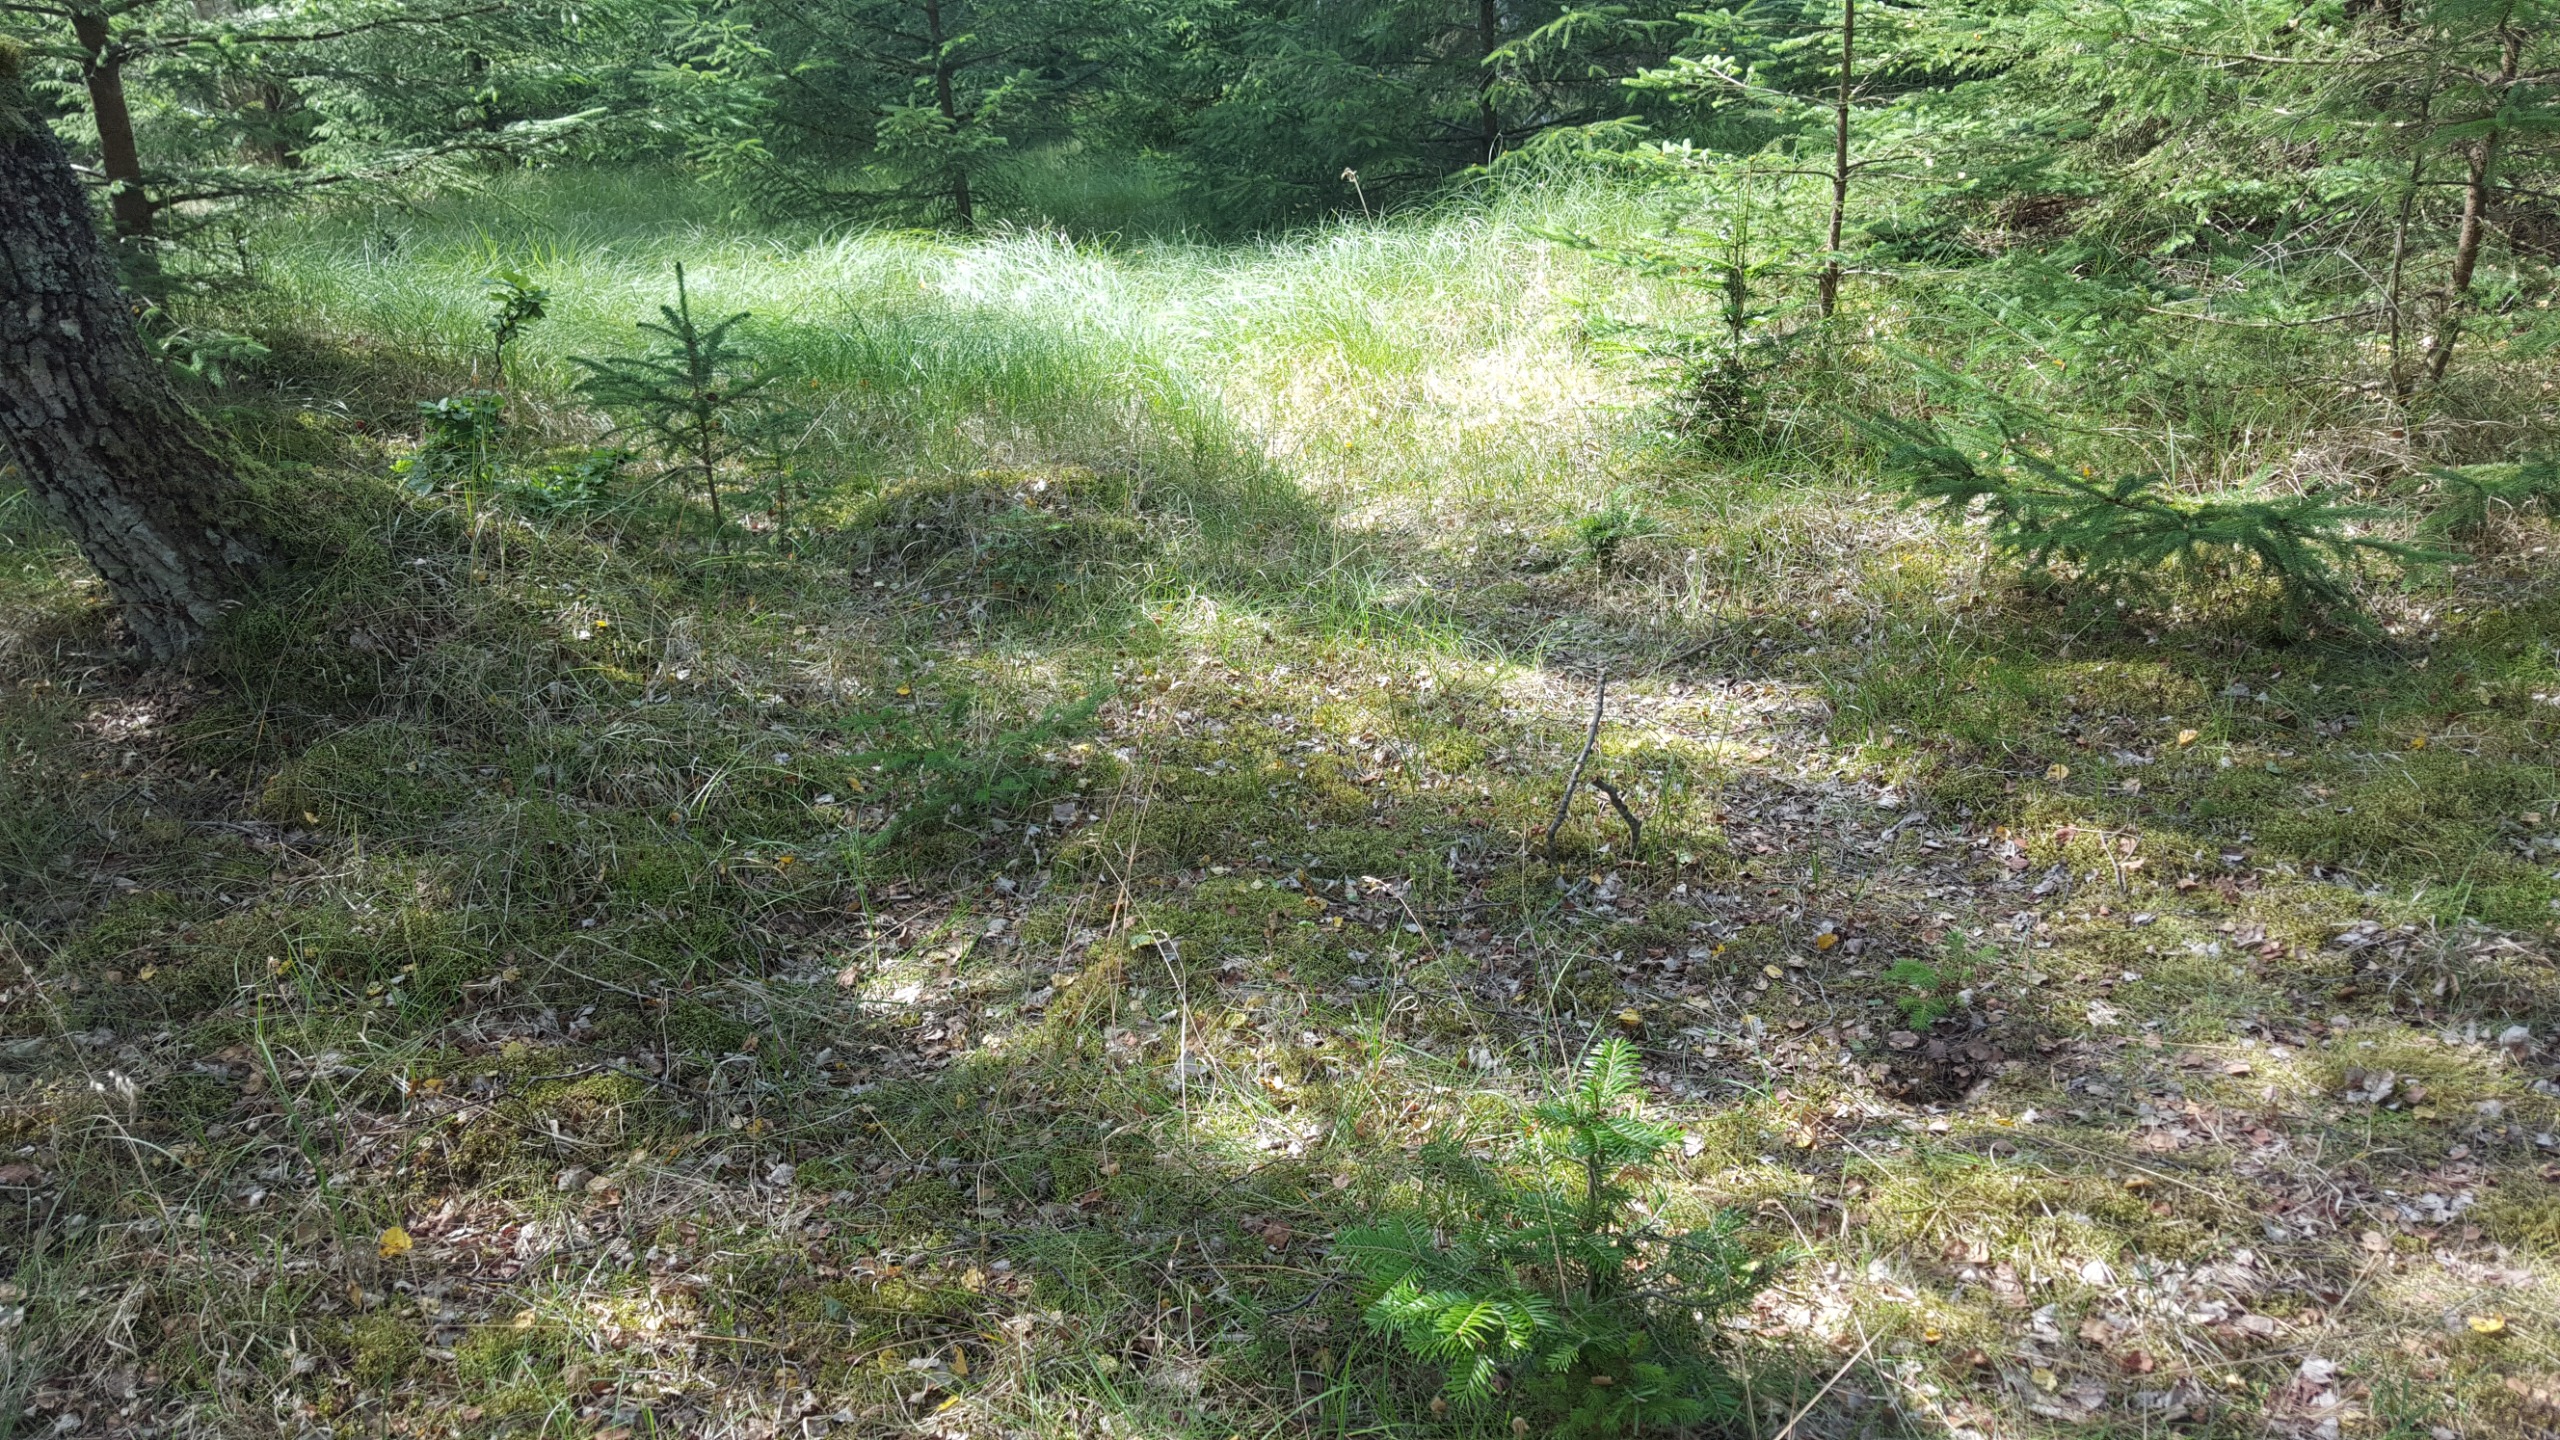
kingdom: Plantae
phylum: Tracheophyta
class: Liliopsida
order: Asparagales
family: Orchidaceae
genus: Goodyera
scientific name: Goodyera repens
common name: Knærod
